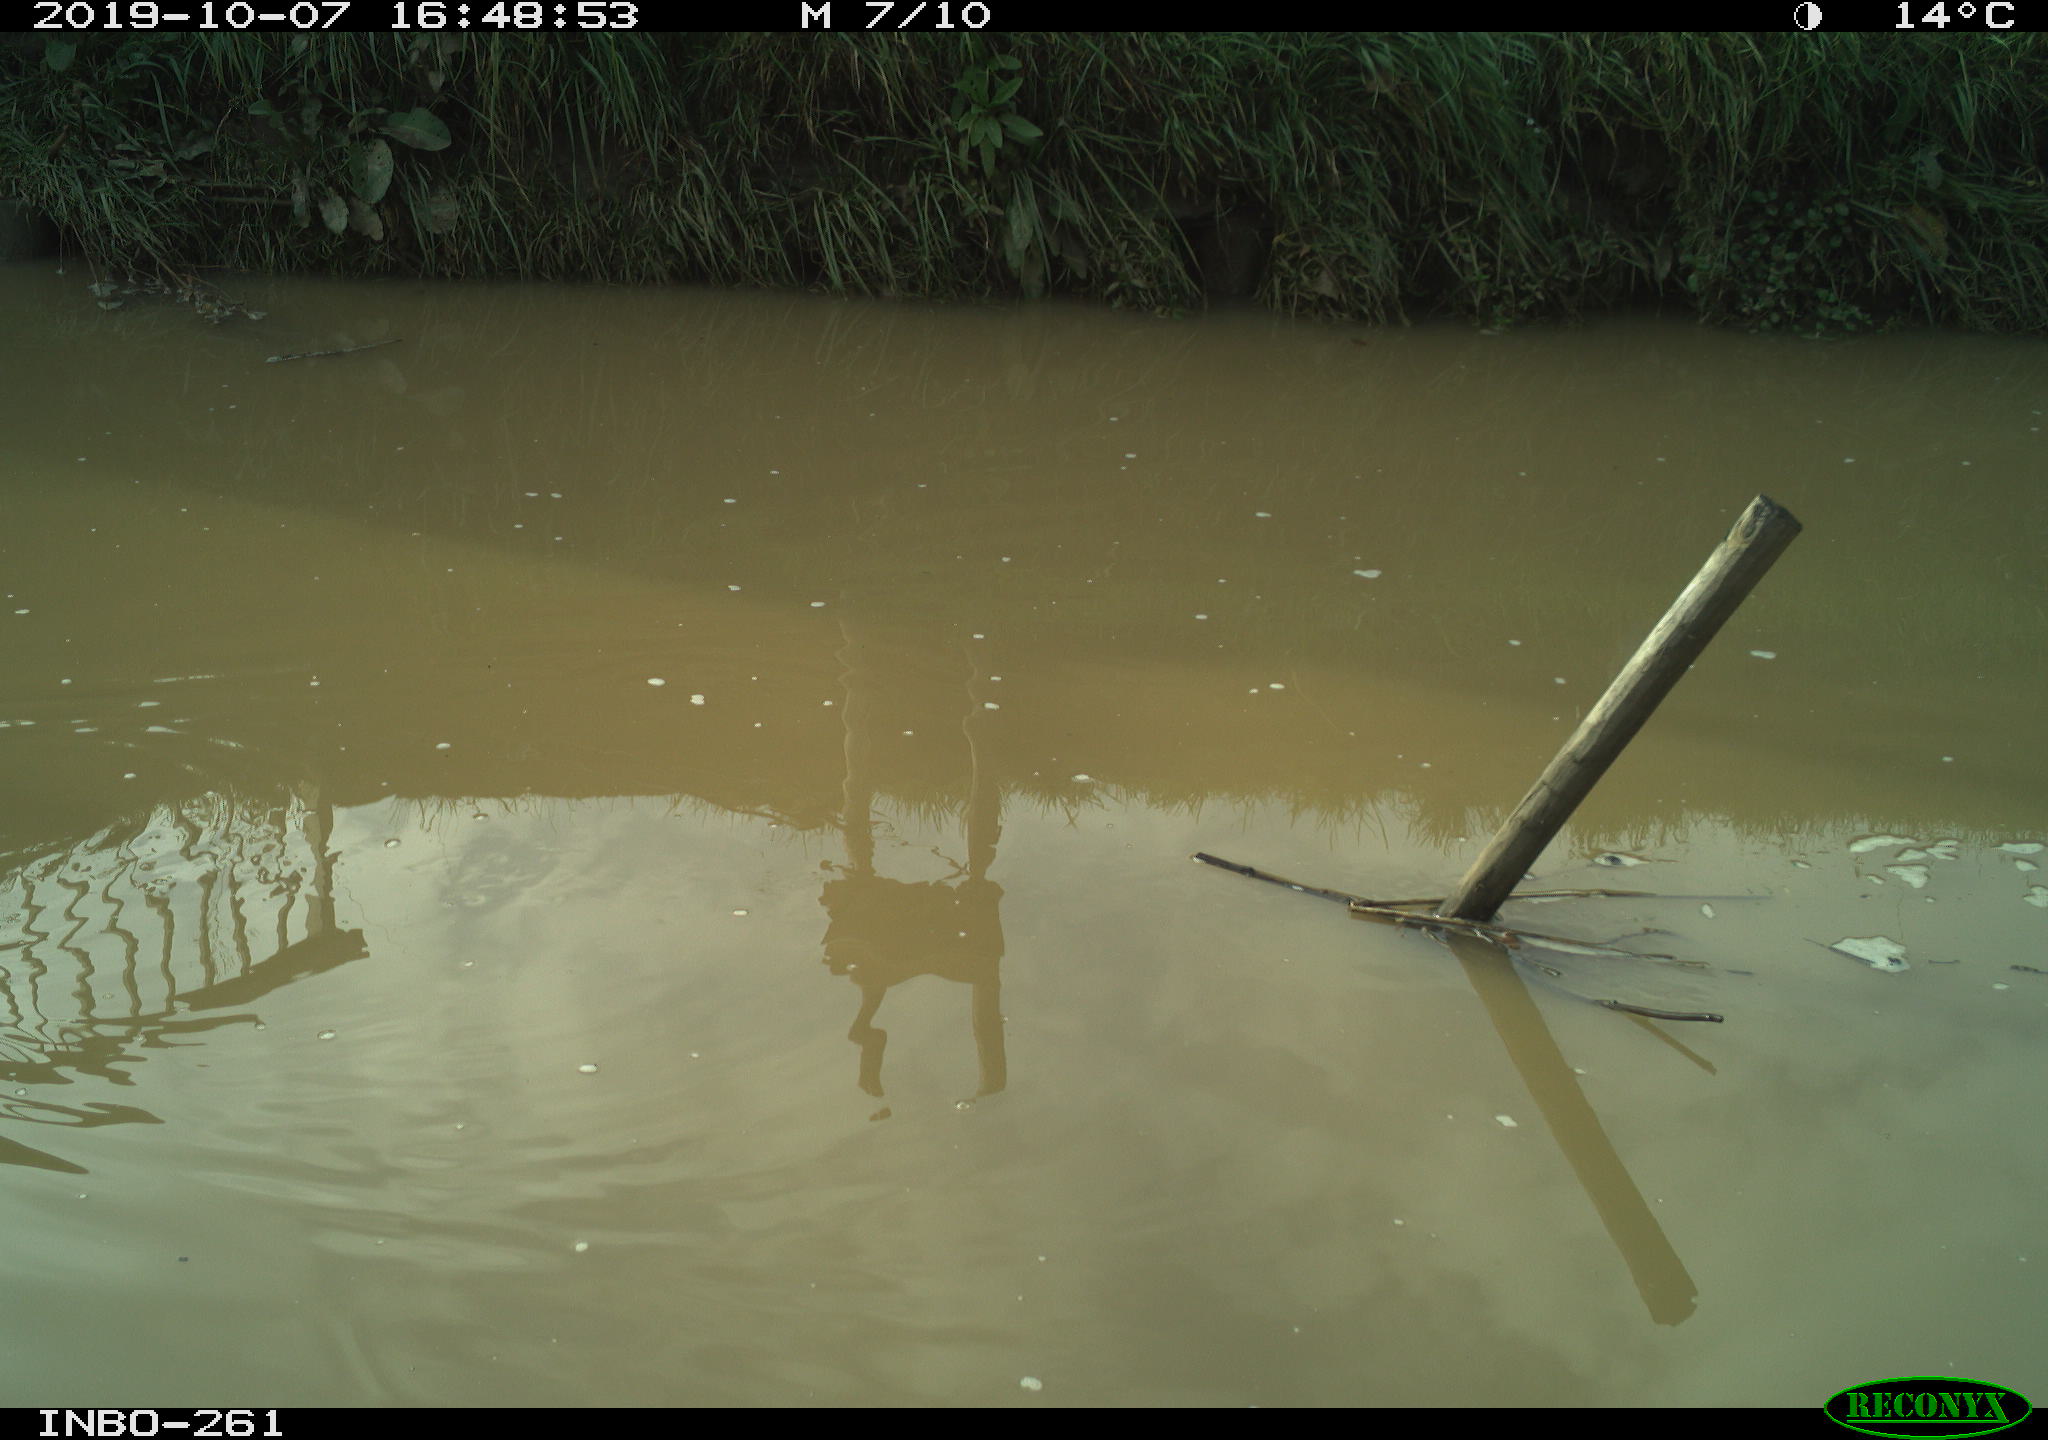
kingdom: Animalia
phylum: Chordata
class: Aves
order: Gruiformes
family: Rallidae
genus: Gallinula
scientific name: Gallinula chloropus
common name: Common moorhen
